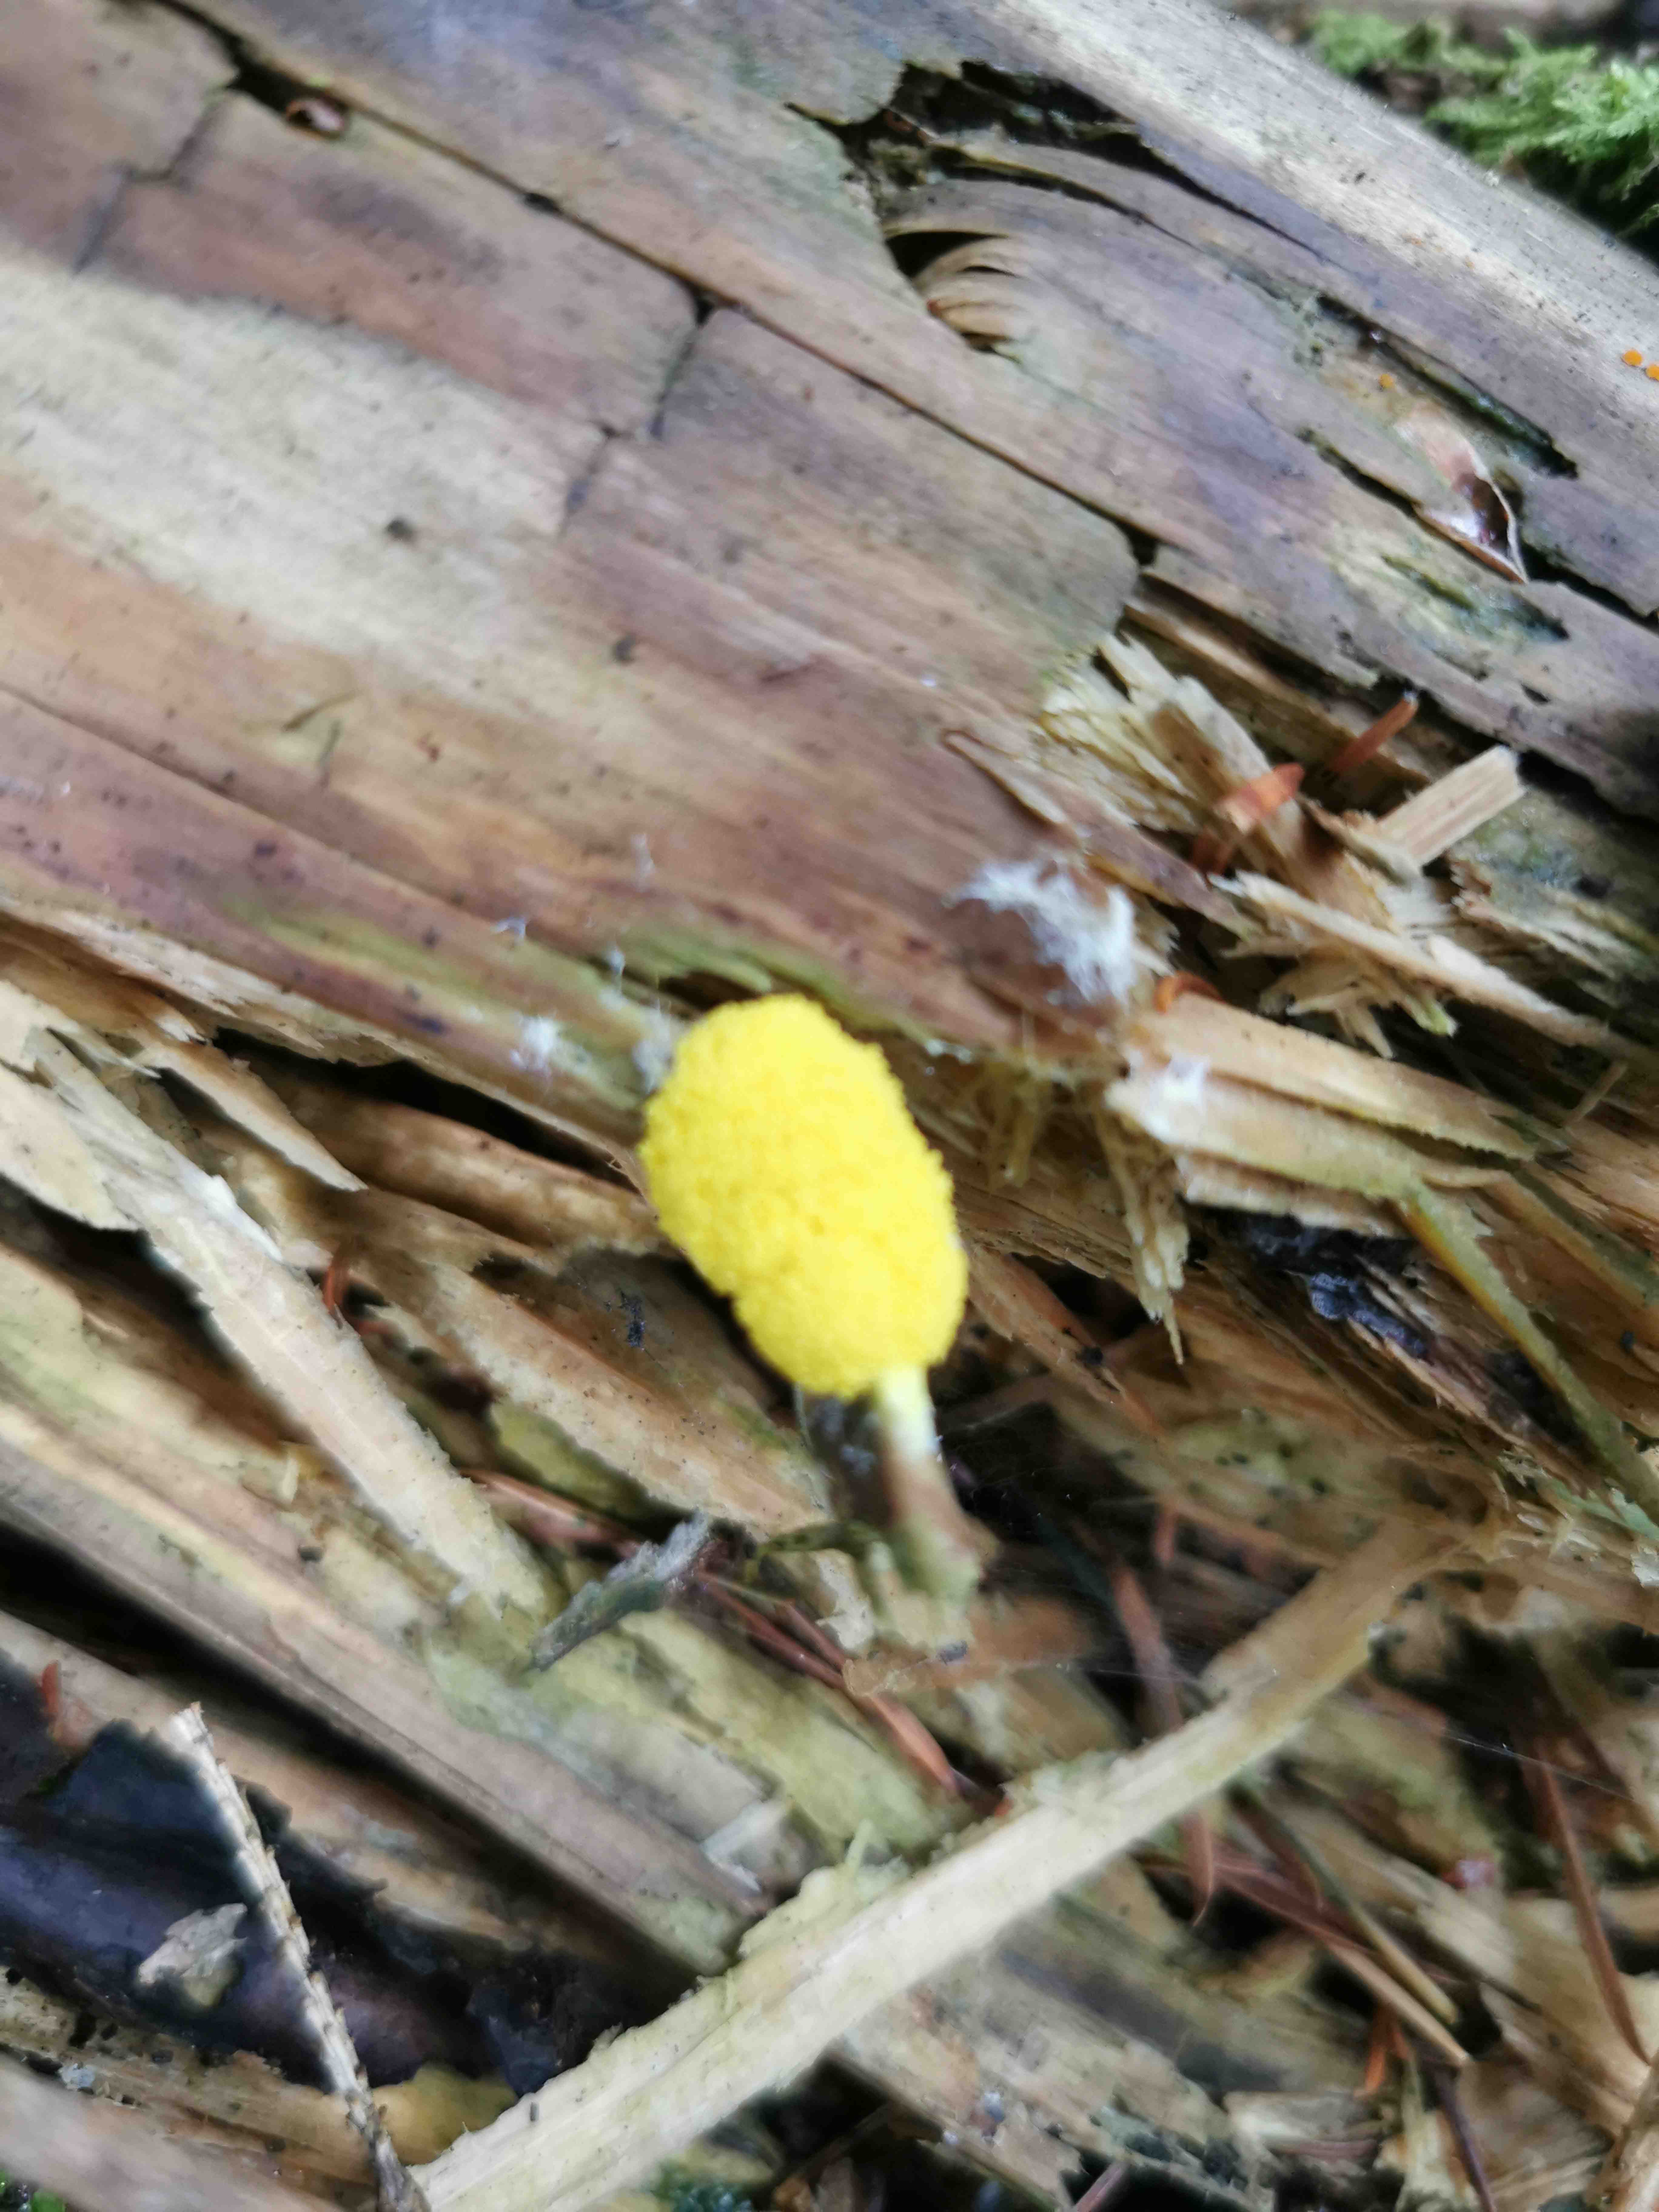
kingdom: Protozoa
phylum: Mycetozoa
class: Myxomycetes
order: Physarales
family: Physaraceae
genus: Fuligo
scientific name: Fuligo septica
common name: gul troldsmør
